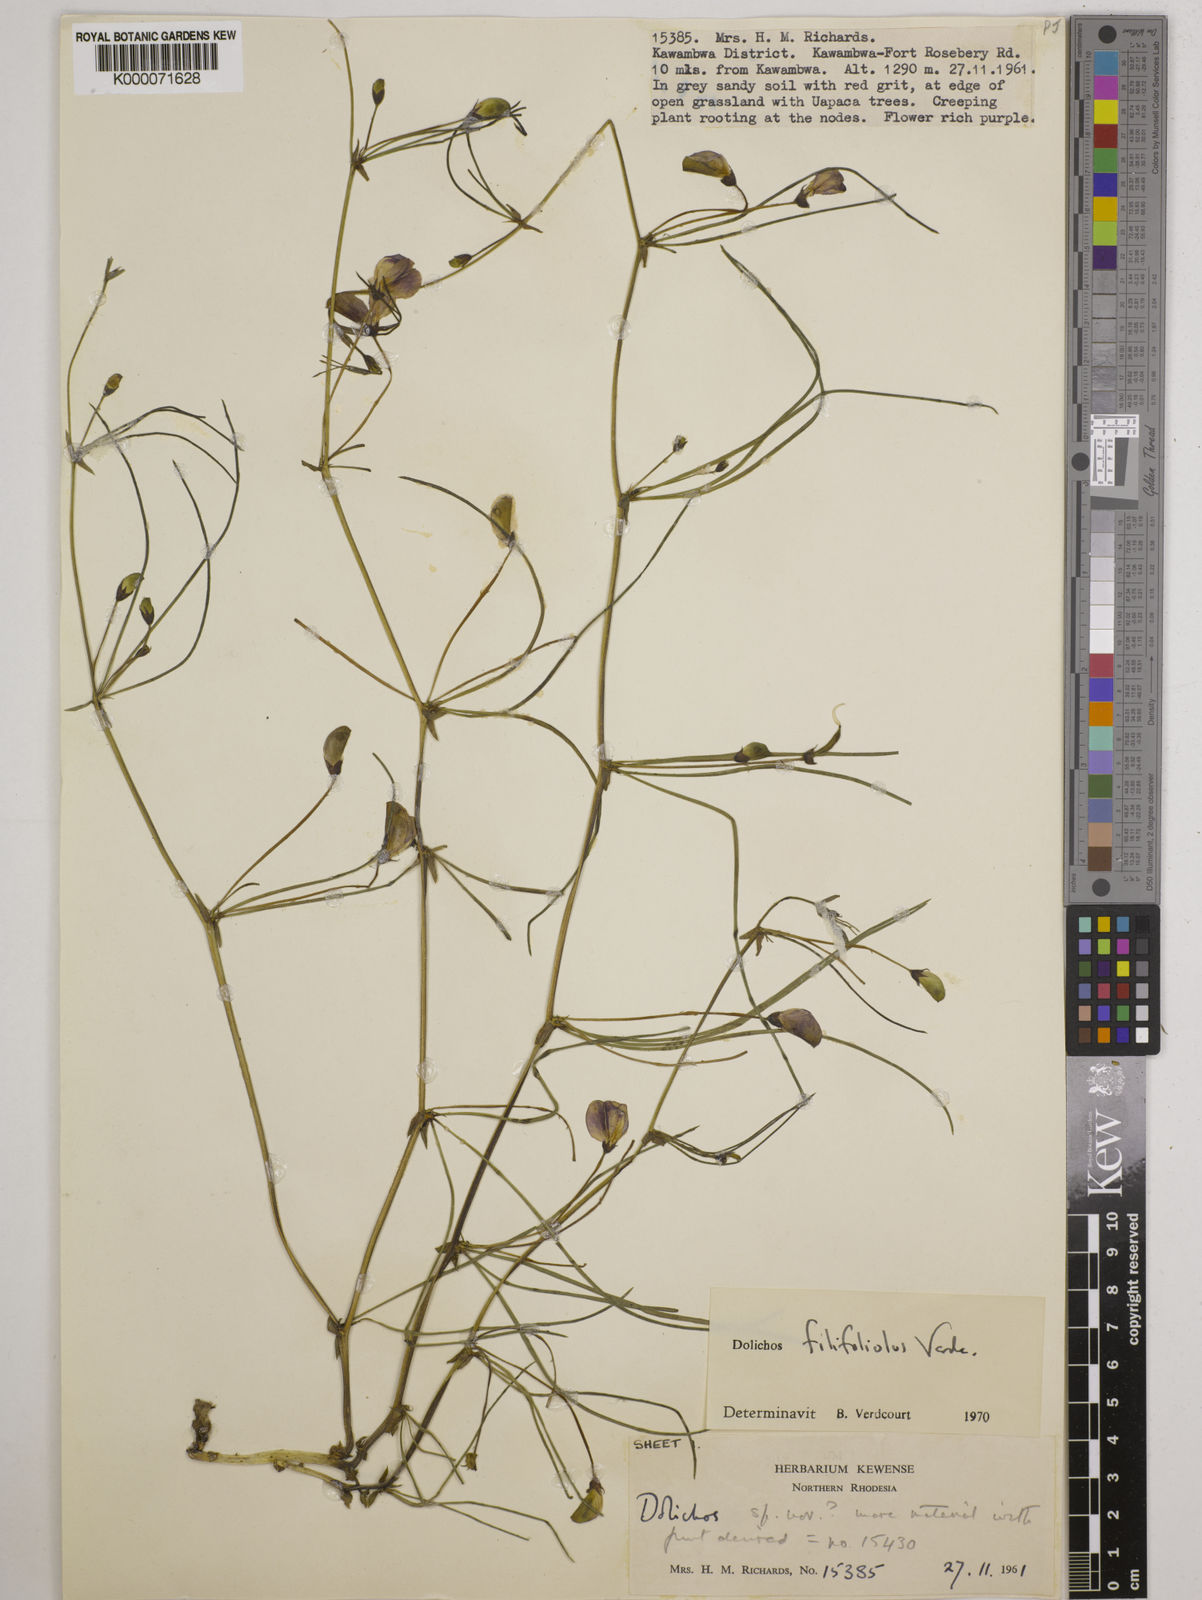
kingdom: Plantae
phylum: Tracheophyta
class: Magnoliopsida
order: Fabales
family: Fabaceae
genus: Dolichos
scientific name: Dolichos filifoliolus
